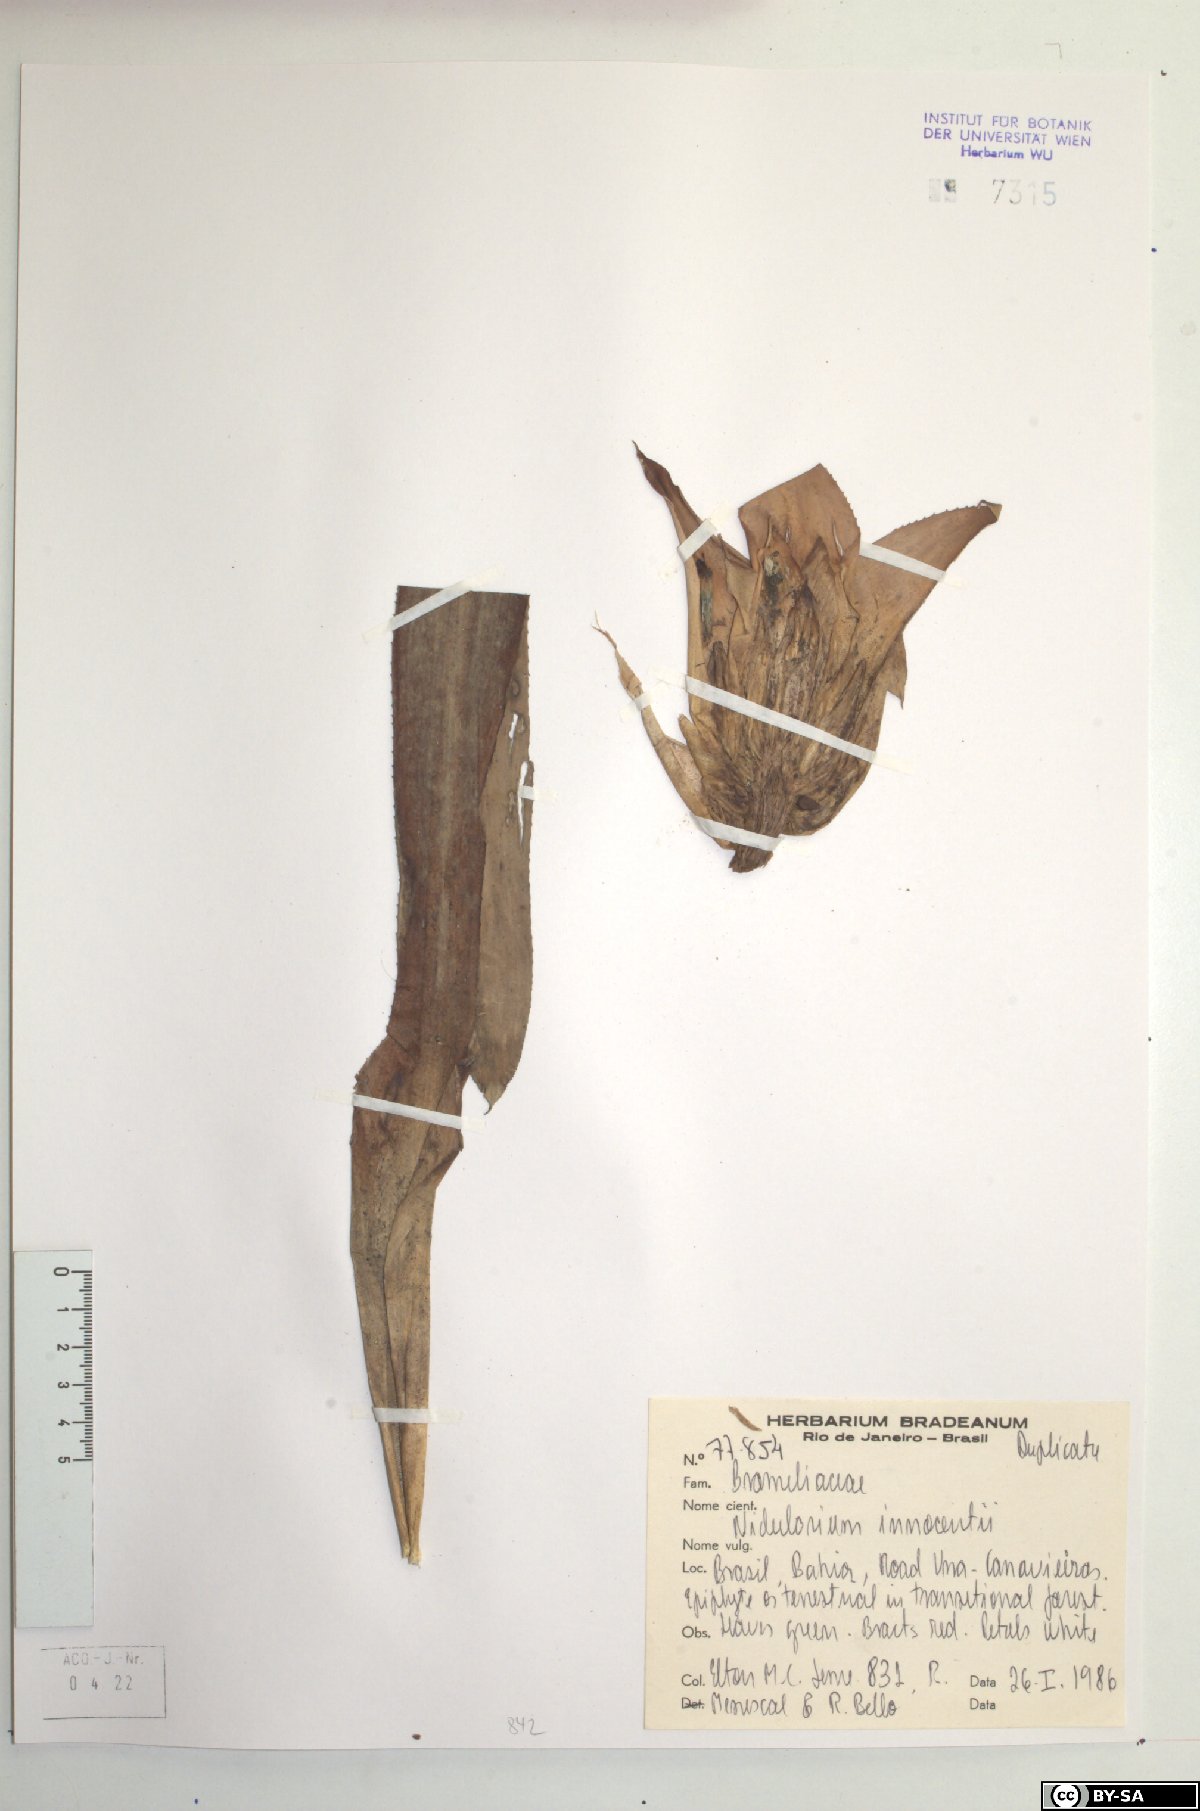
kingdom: Plantae
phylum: Tracheophyta
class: Liliopsida
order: Poales
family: Bromeliaceae
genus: Nidularium
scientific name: Nidularium innocentii
